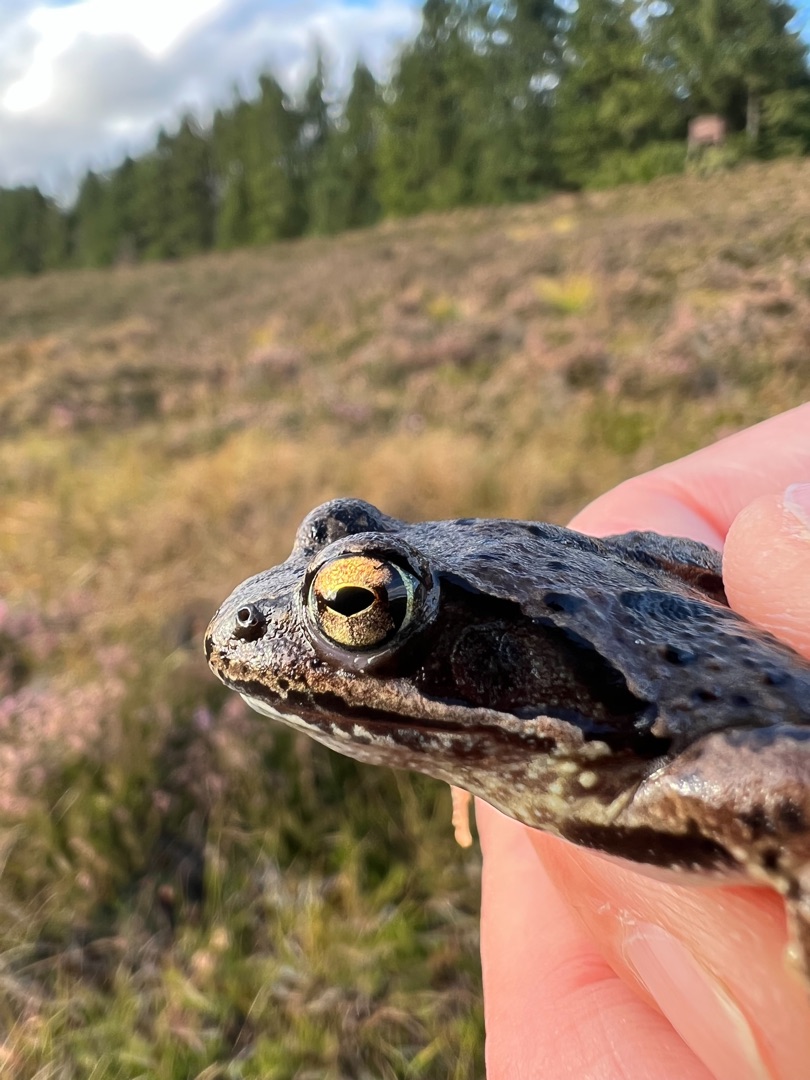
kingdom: Animalia
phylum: Chordata
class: Amphibia
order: Anura
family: Ranidae
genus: Rana
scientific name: Rana temporaria
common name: Butsnudet frø
